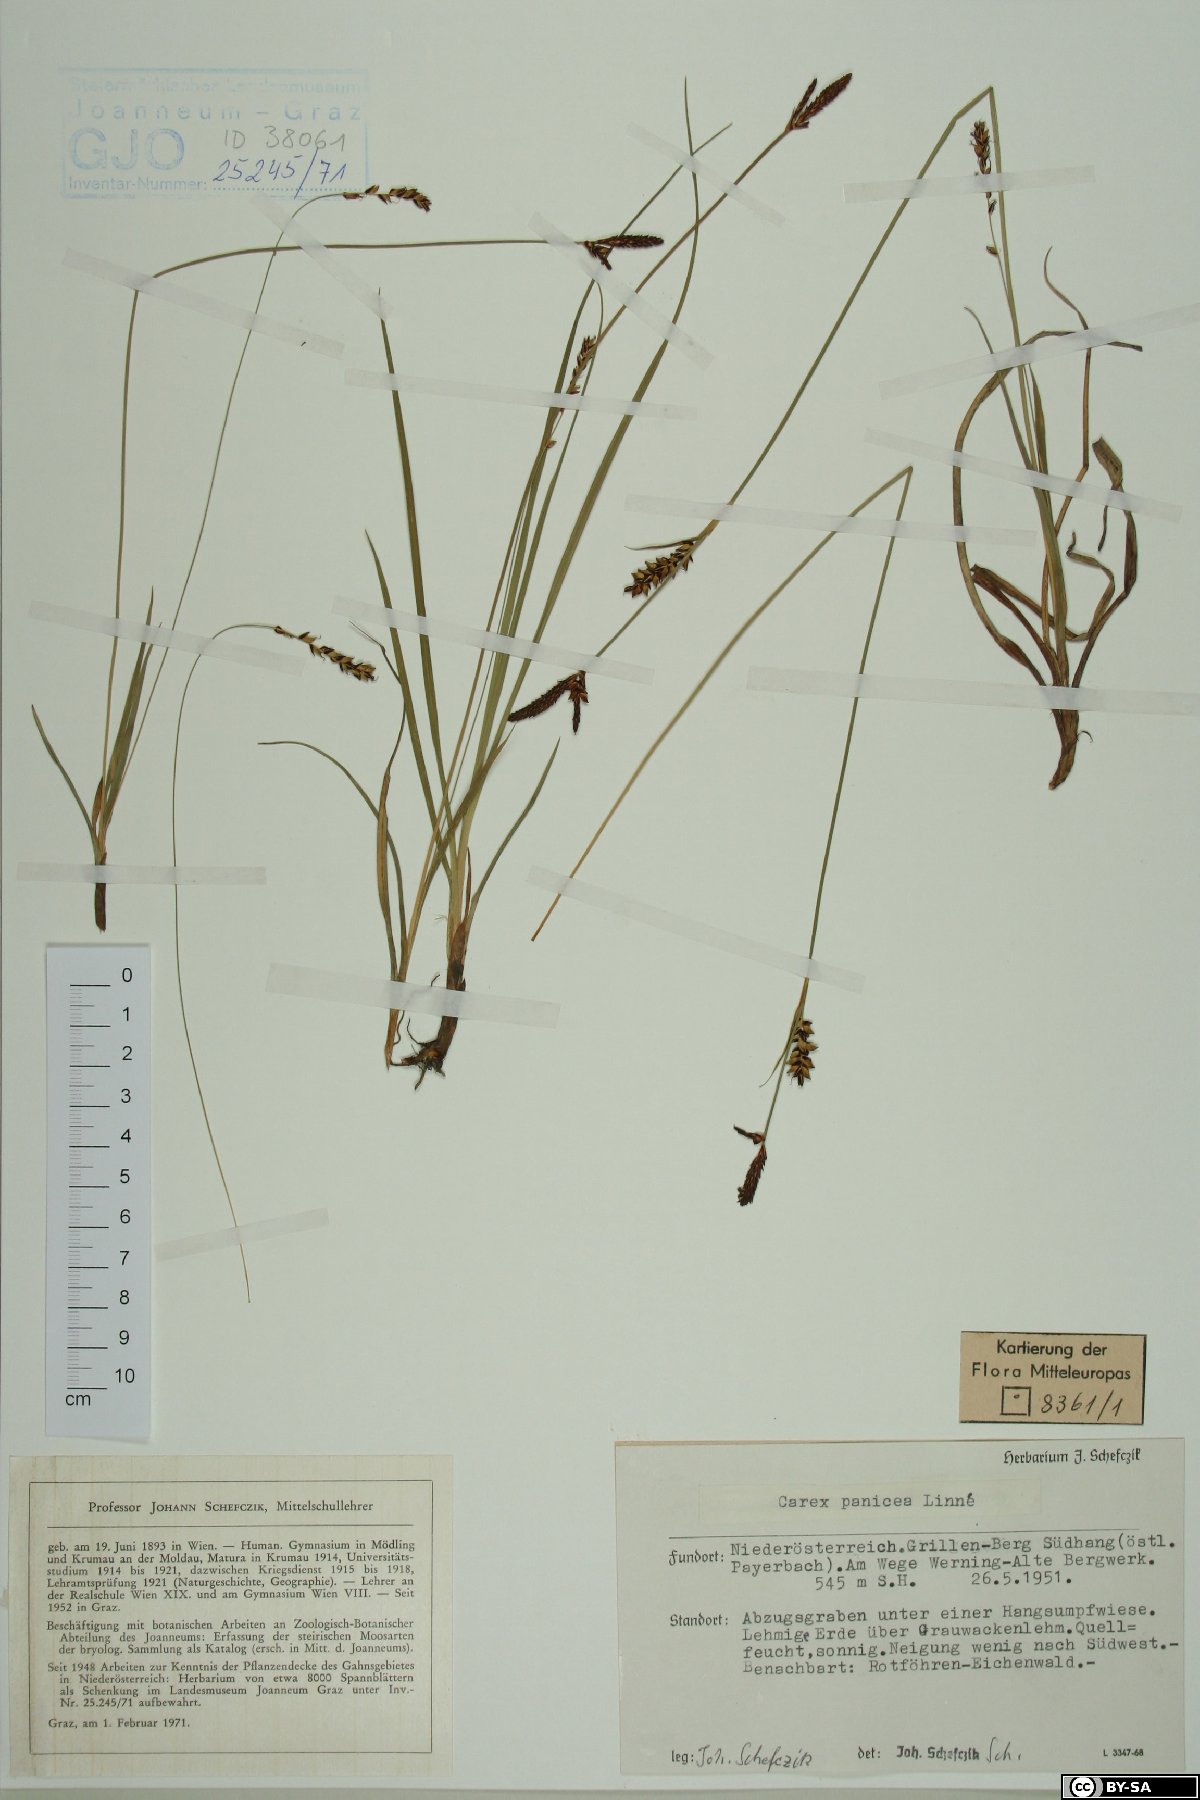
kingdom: Plantae
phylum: Tracheophyta
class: Liliopsida
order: Poales
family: Cyperaceae
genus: Carex
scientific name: Carex panicea
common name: Carnation sedge
